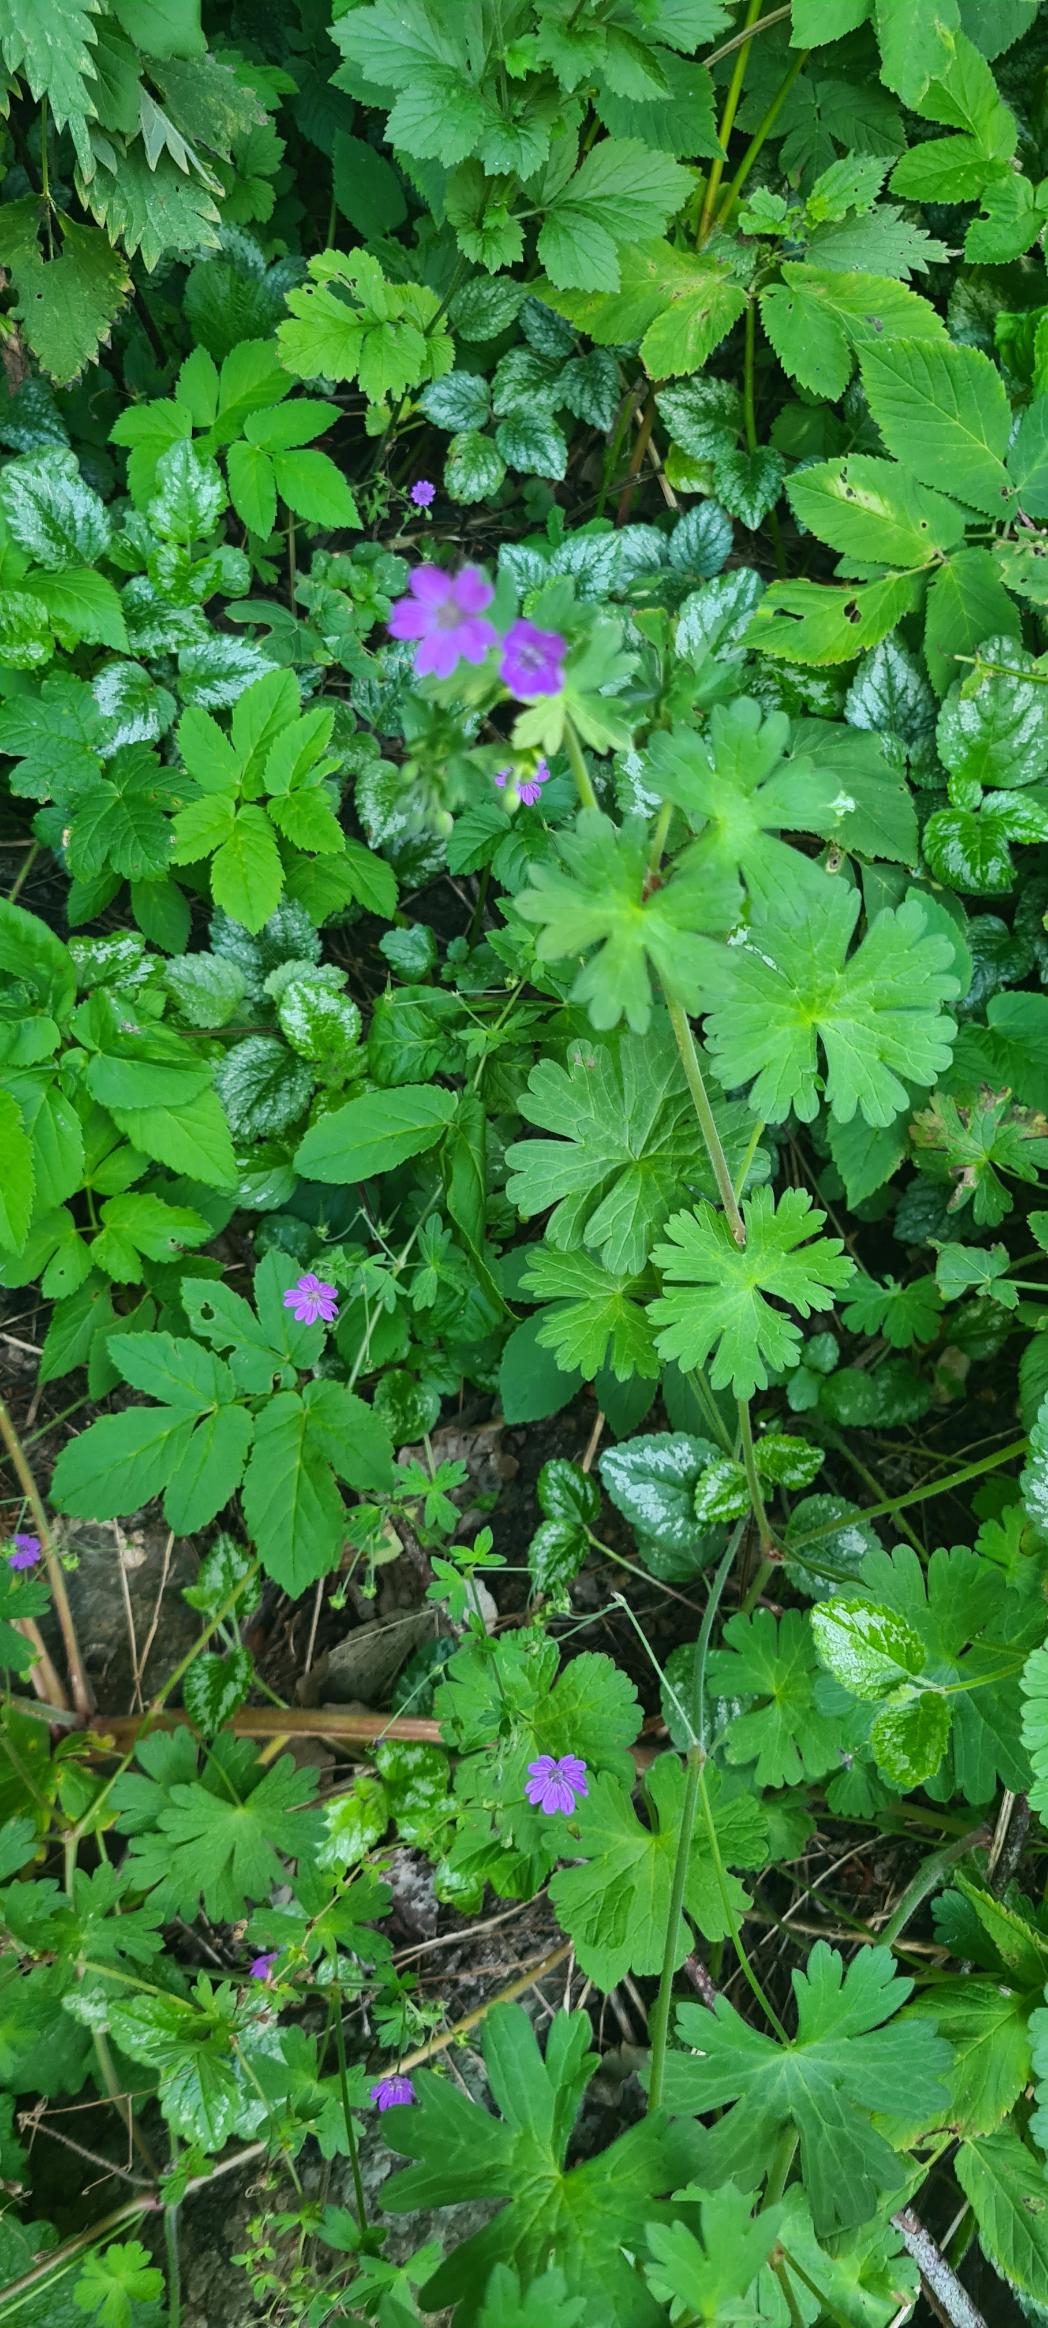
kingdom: Plantae
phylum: Tracheophyta
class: Magnoliopsida
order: Geraniales
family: Geraniaceae
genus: Geranium
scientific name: Geranium pyrenaicum
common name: Pyrenæisk storkenæb
